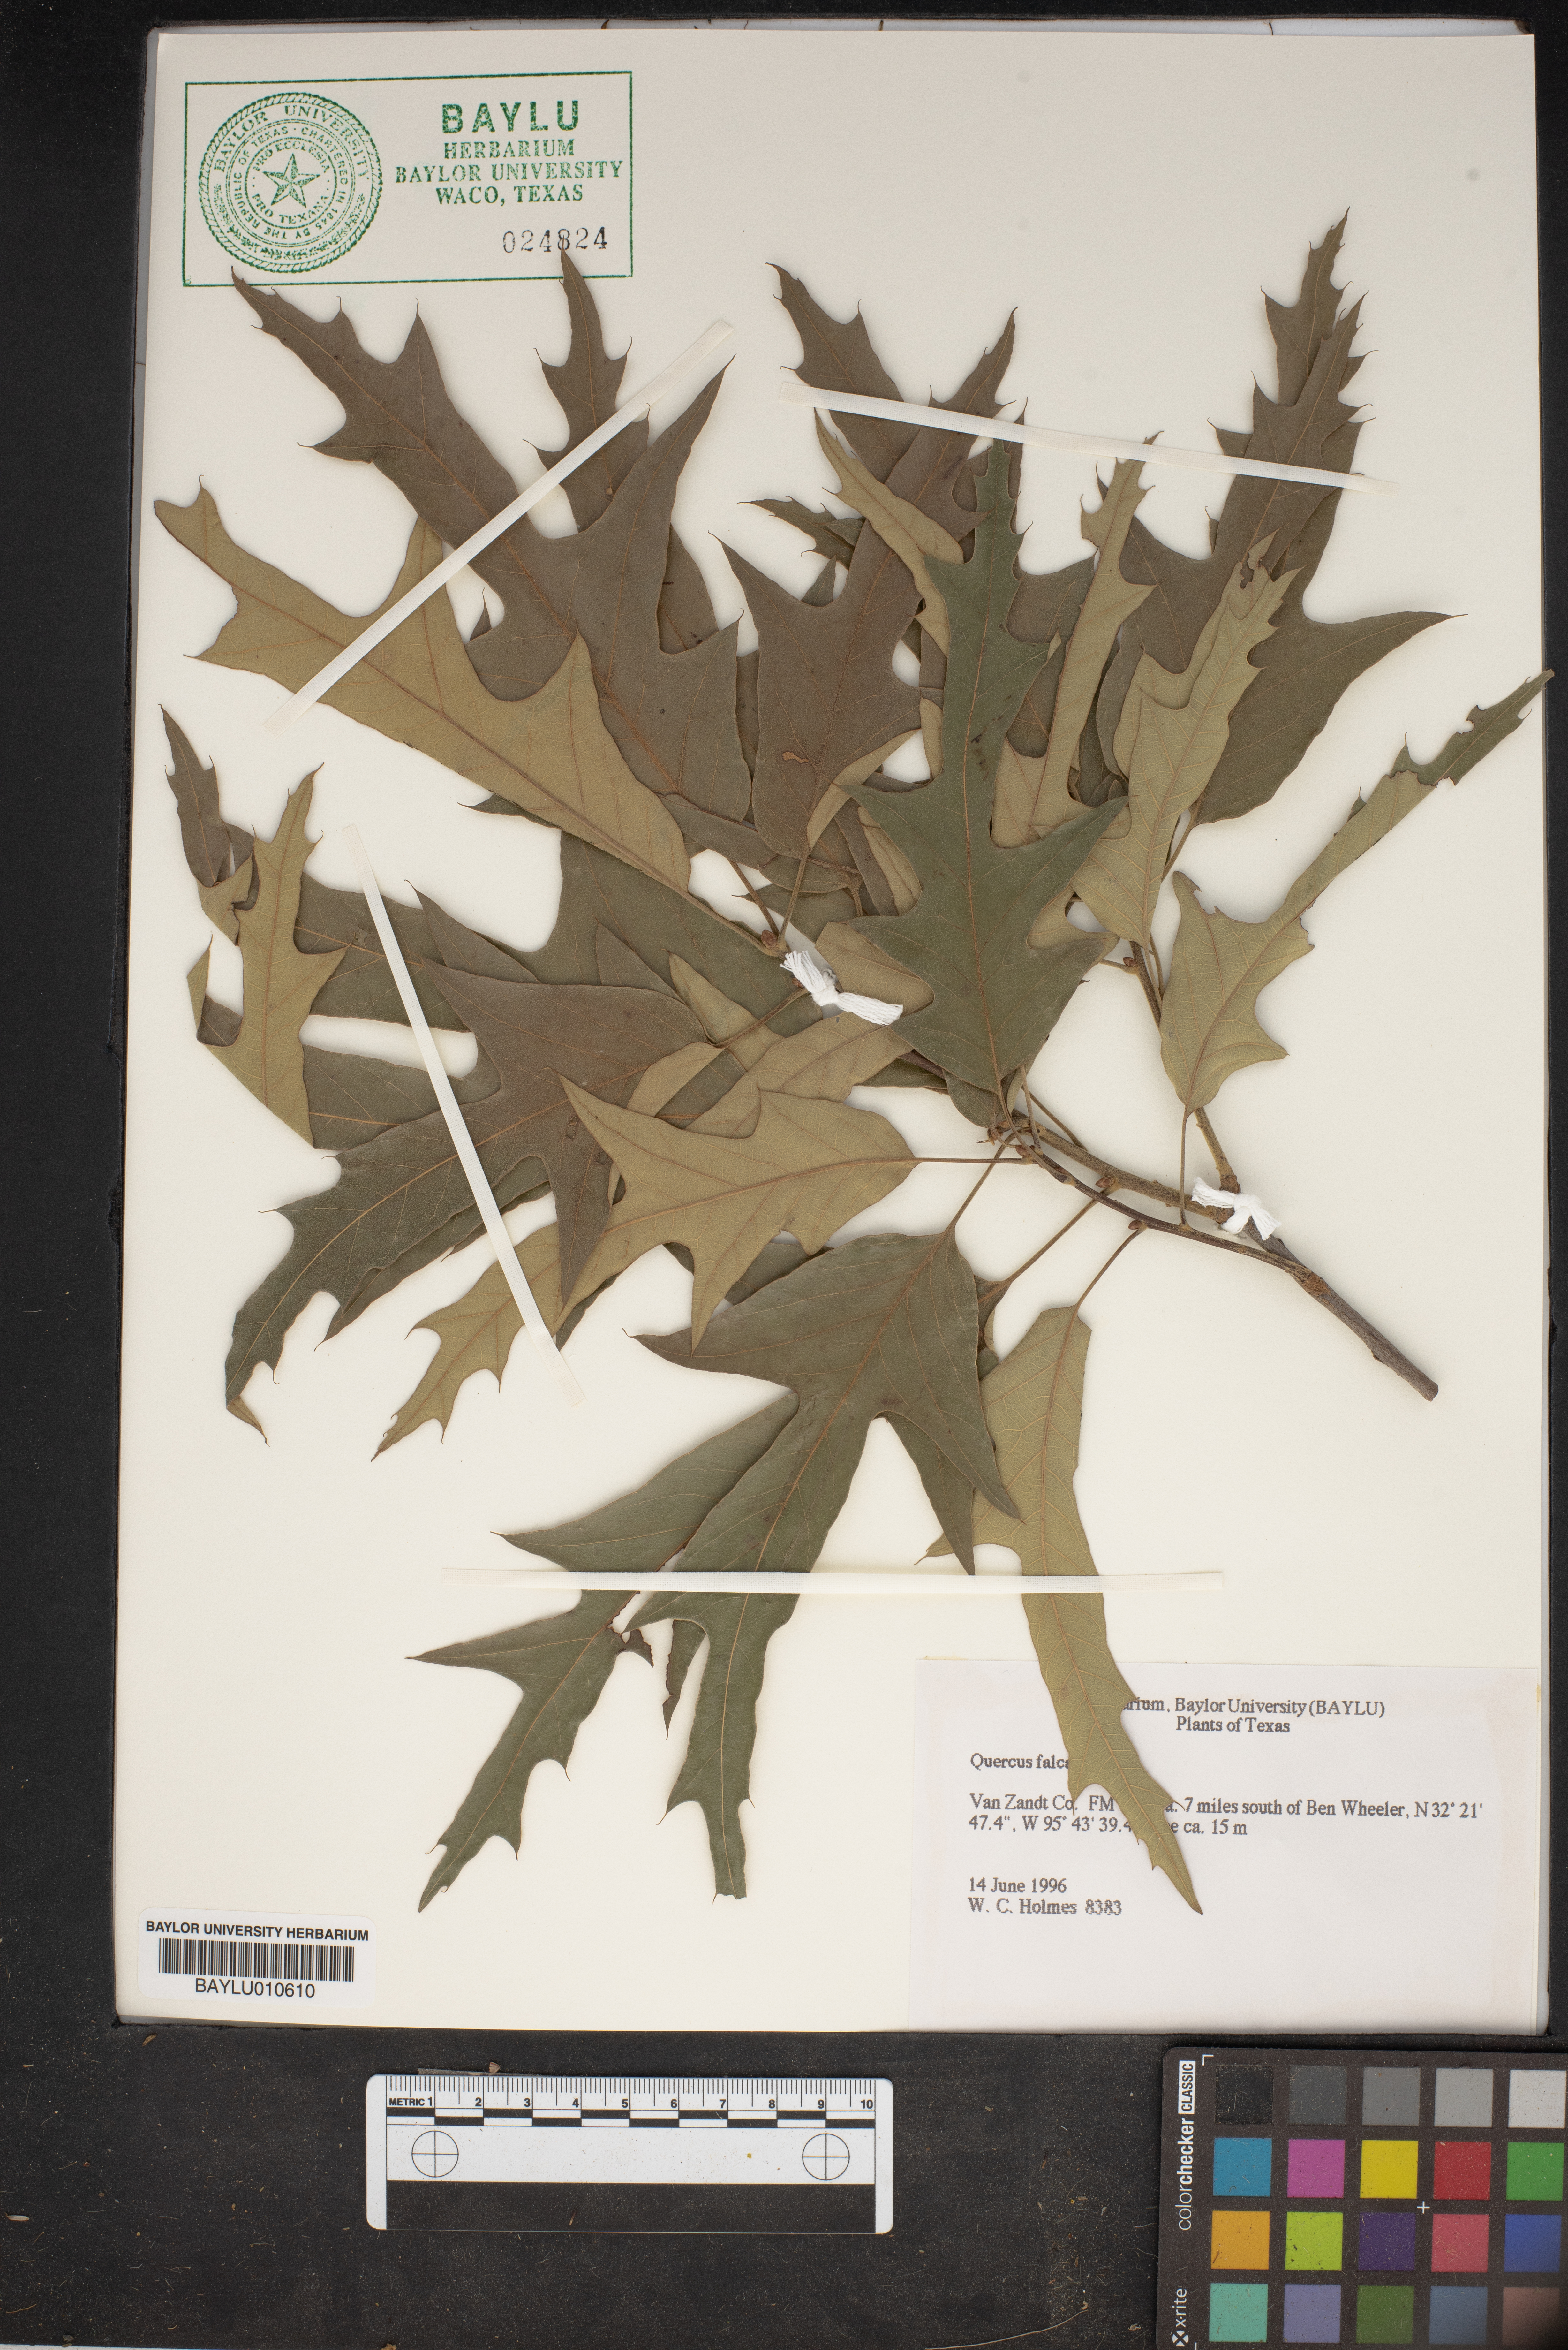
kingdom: Plantae
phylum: Tracheophyta
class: Magnoliopsida
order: Fagales
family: Fagaceae
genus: Quercus
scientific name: Quercus falcata
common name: Southern red oak
